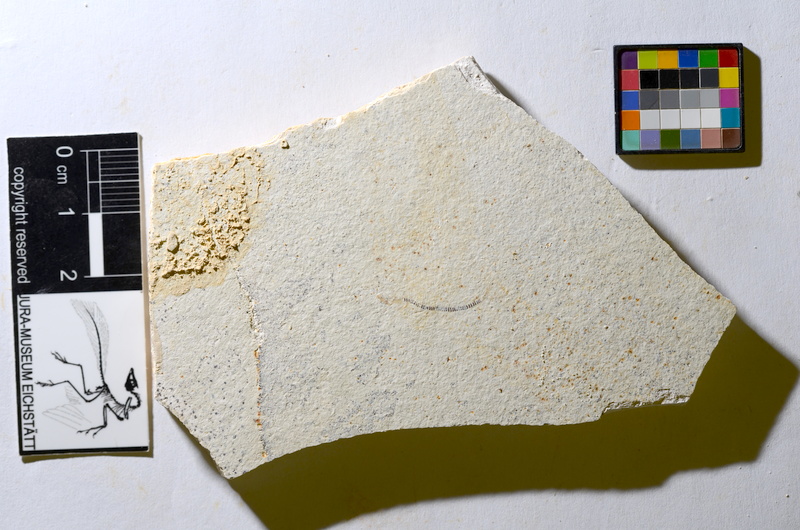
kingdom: Animalia
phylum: Chordata
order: Salmoniformes
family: Orthogonikleithridae
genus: Orthogonikleithrus
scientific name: Orthogonikleithrus hoelli
